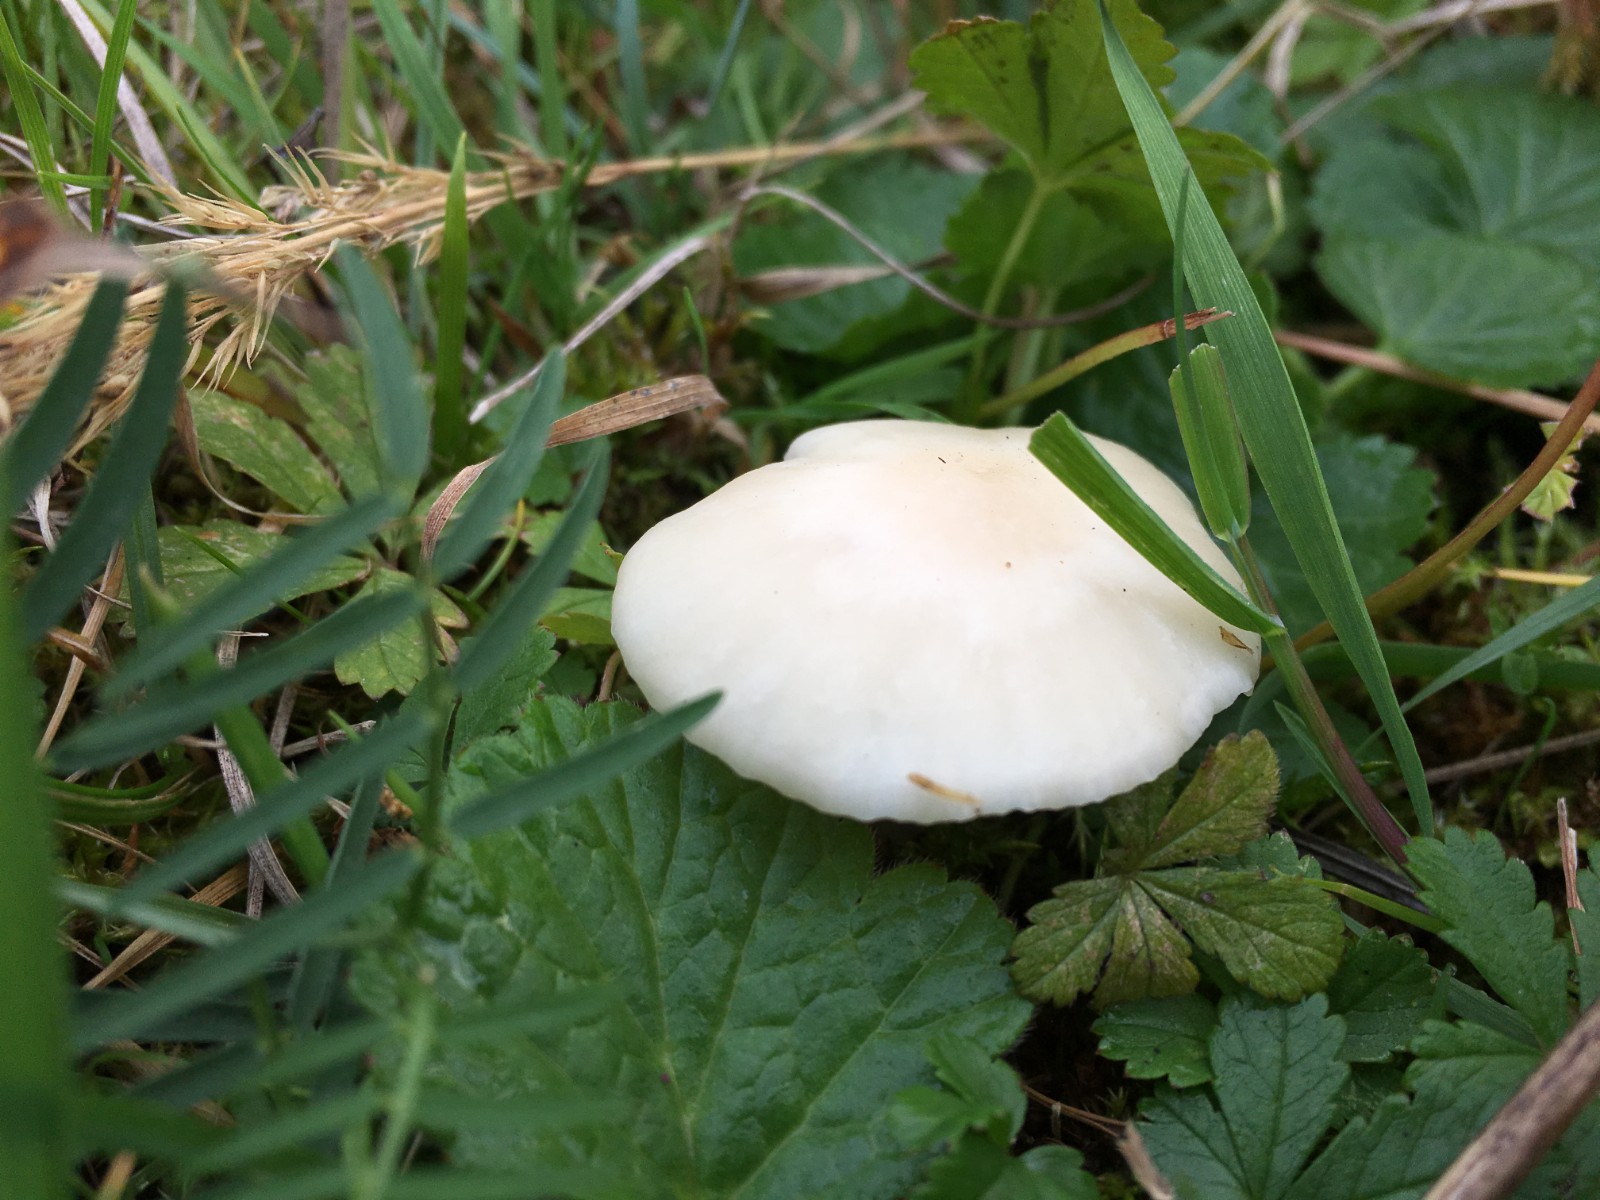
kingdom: Fungi
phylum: Basidiomycota
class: Agaricomycetes
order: Agaricales
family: Hygrophoraceae
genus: Cuphophyllus
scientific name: Cuphophyllus virgineus
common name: snehvid vokshat
